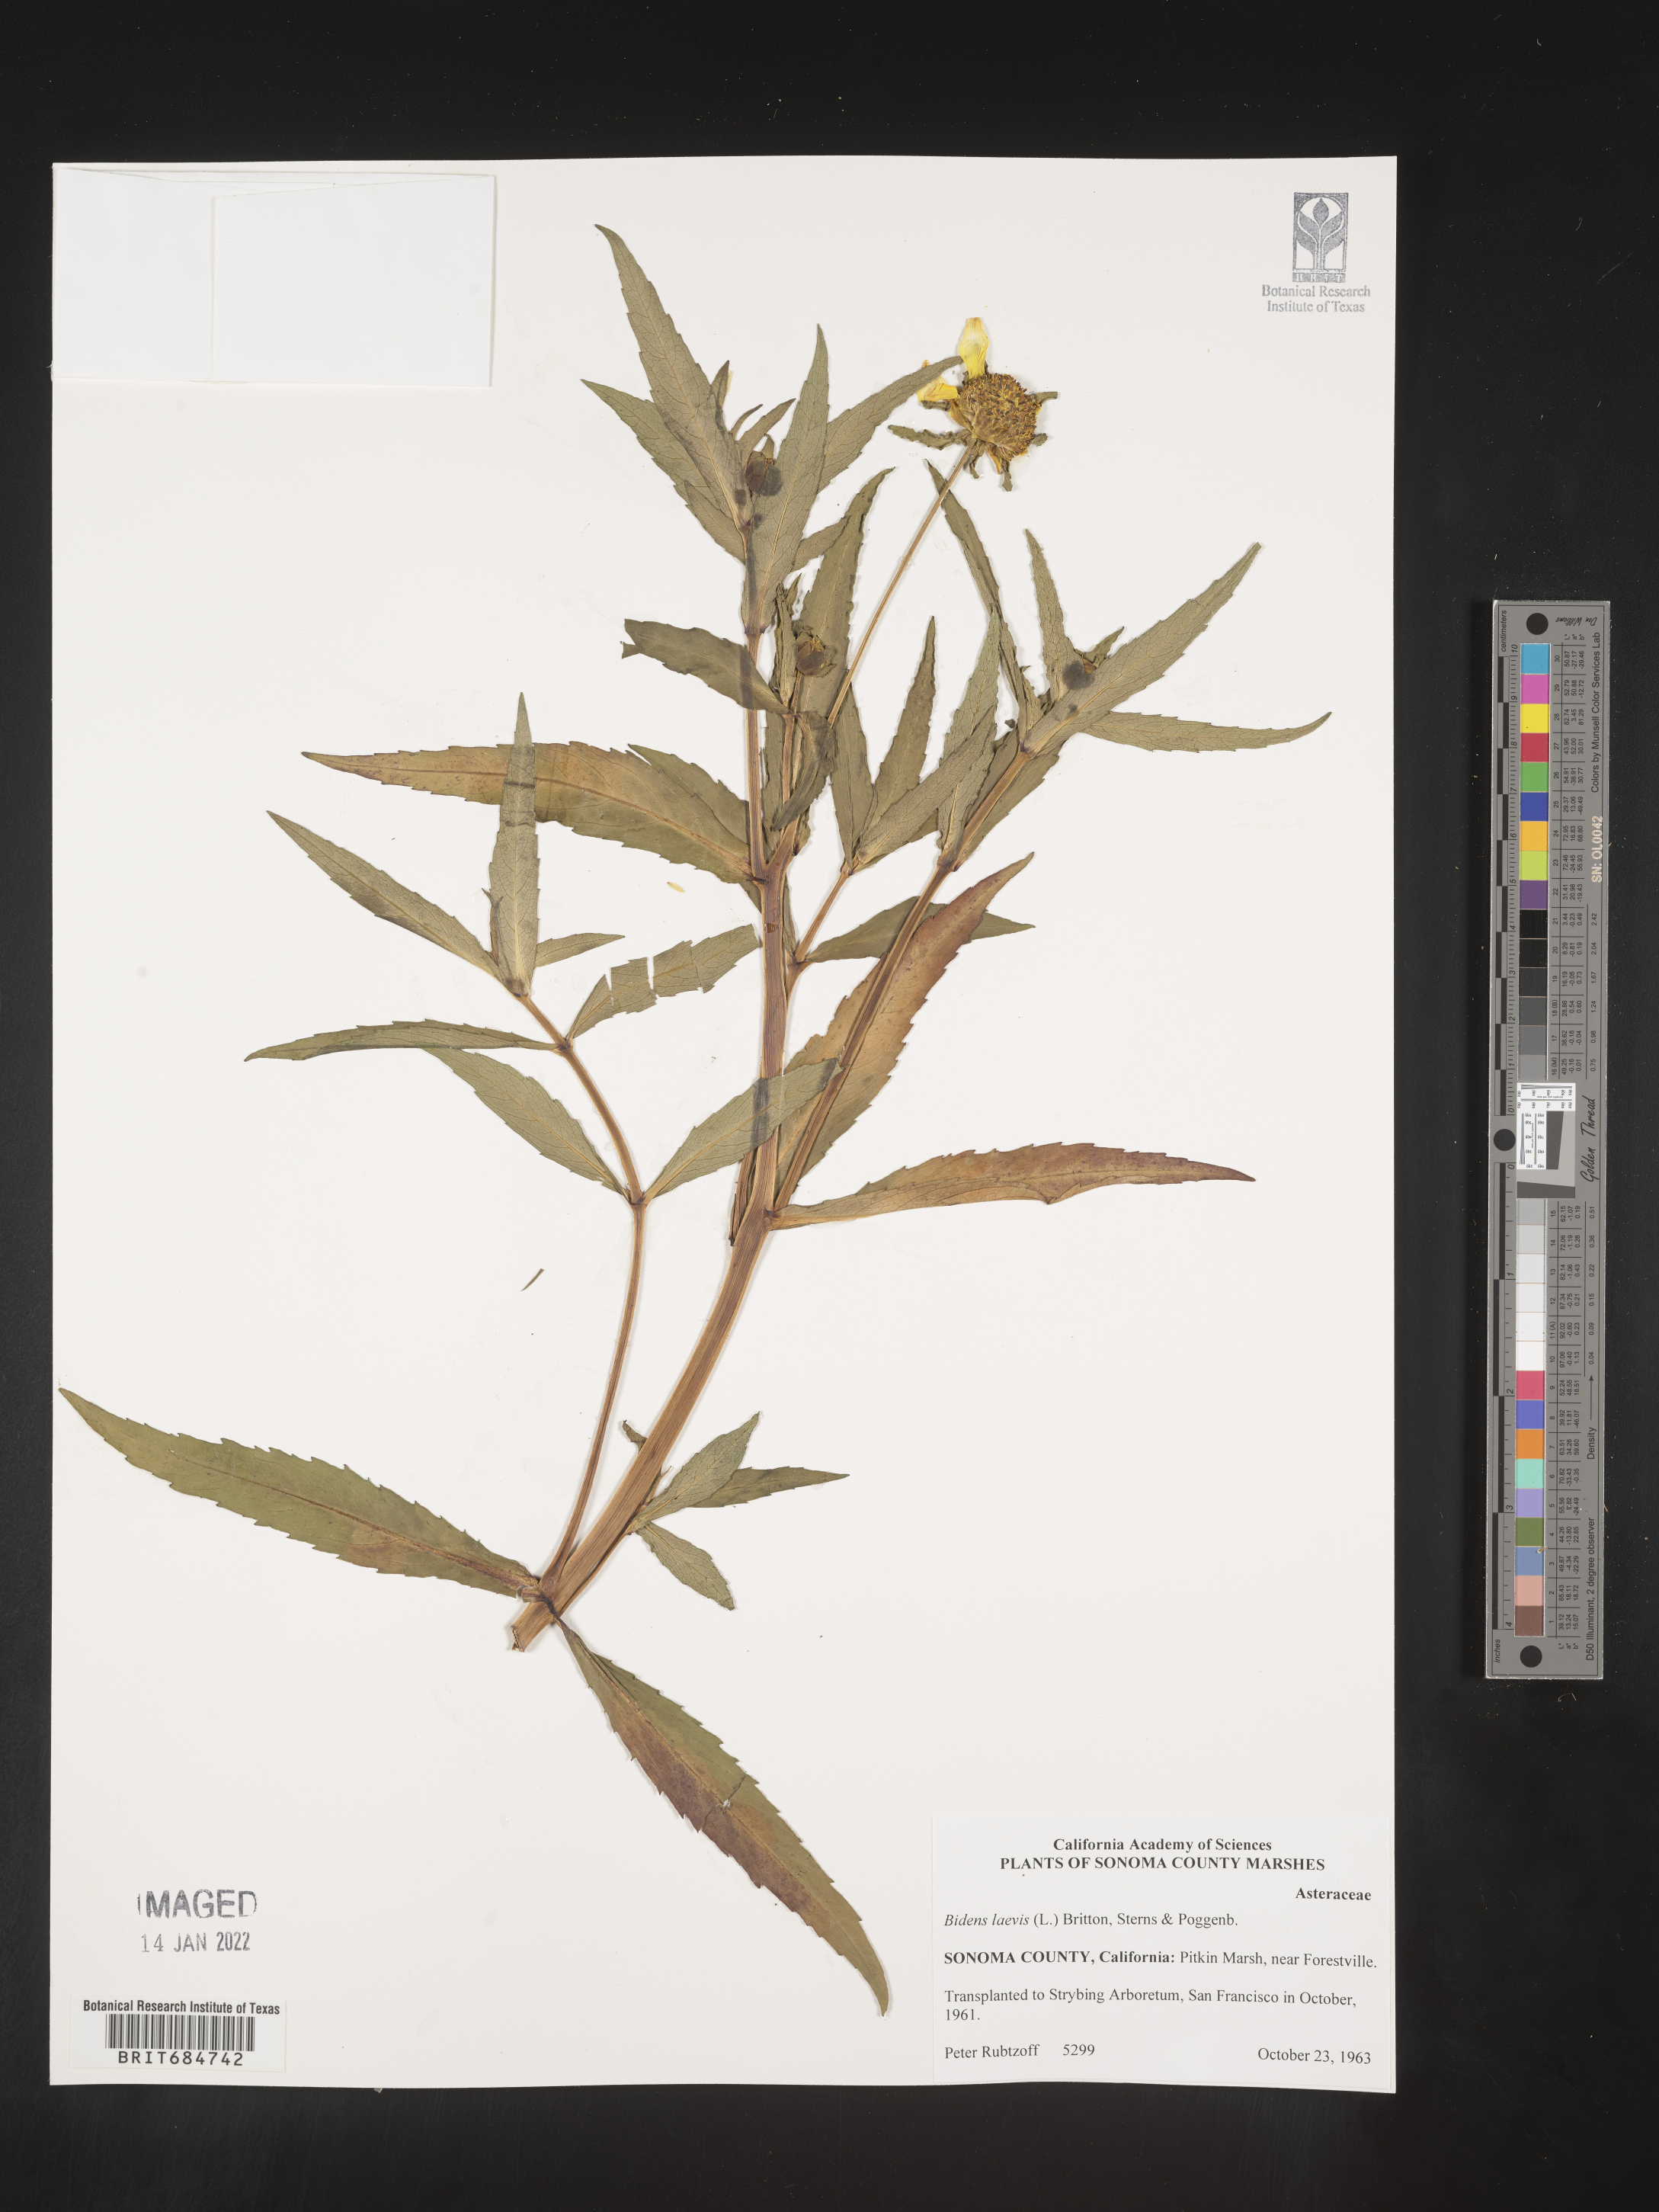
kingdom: Plantae
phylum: Tracheophyta
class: Magnoliopsida
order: Asterales
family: Asteraceae
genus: Bidens
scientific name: Bidens laevis
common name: Larger bur-marigold
